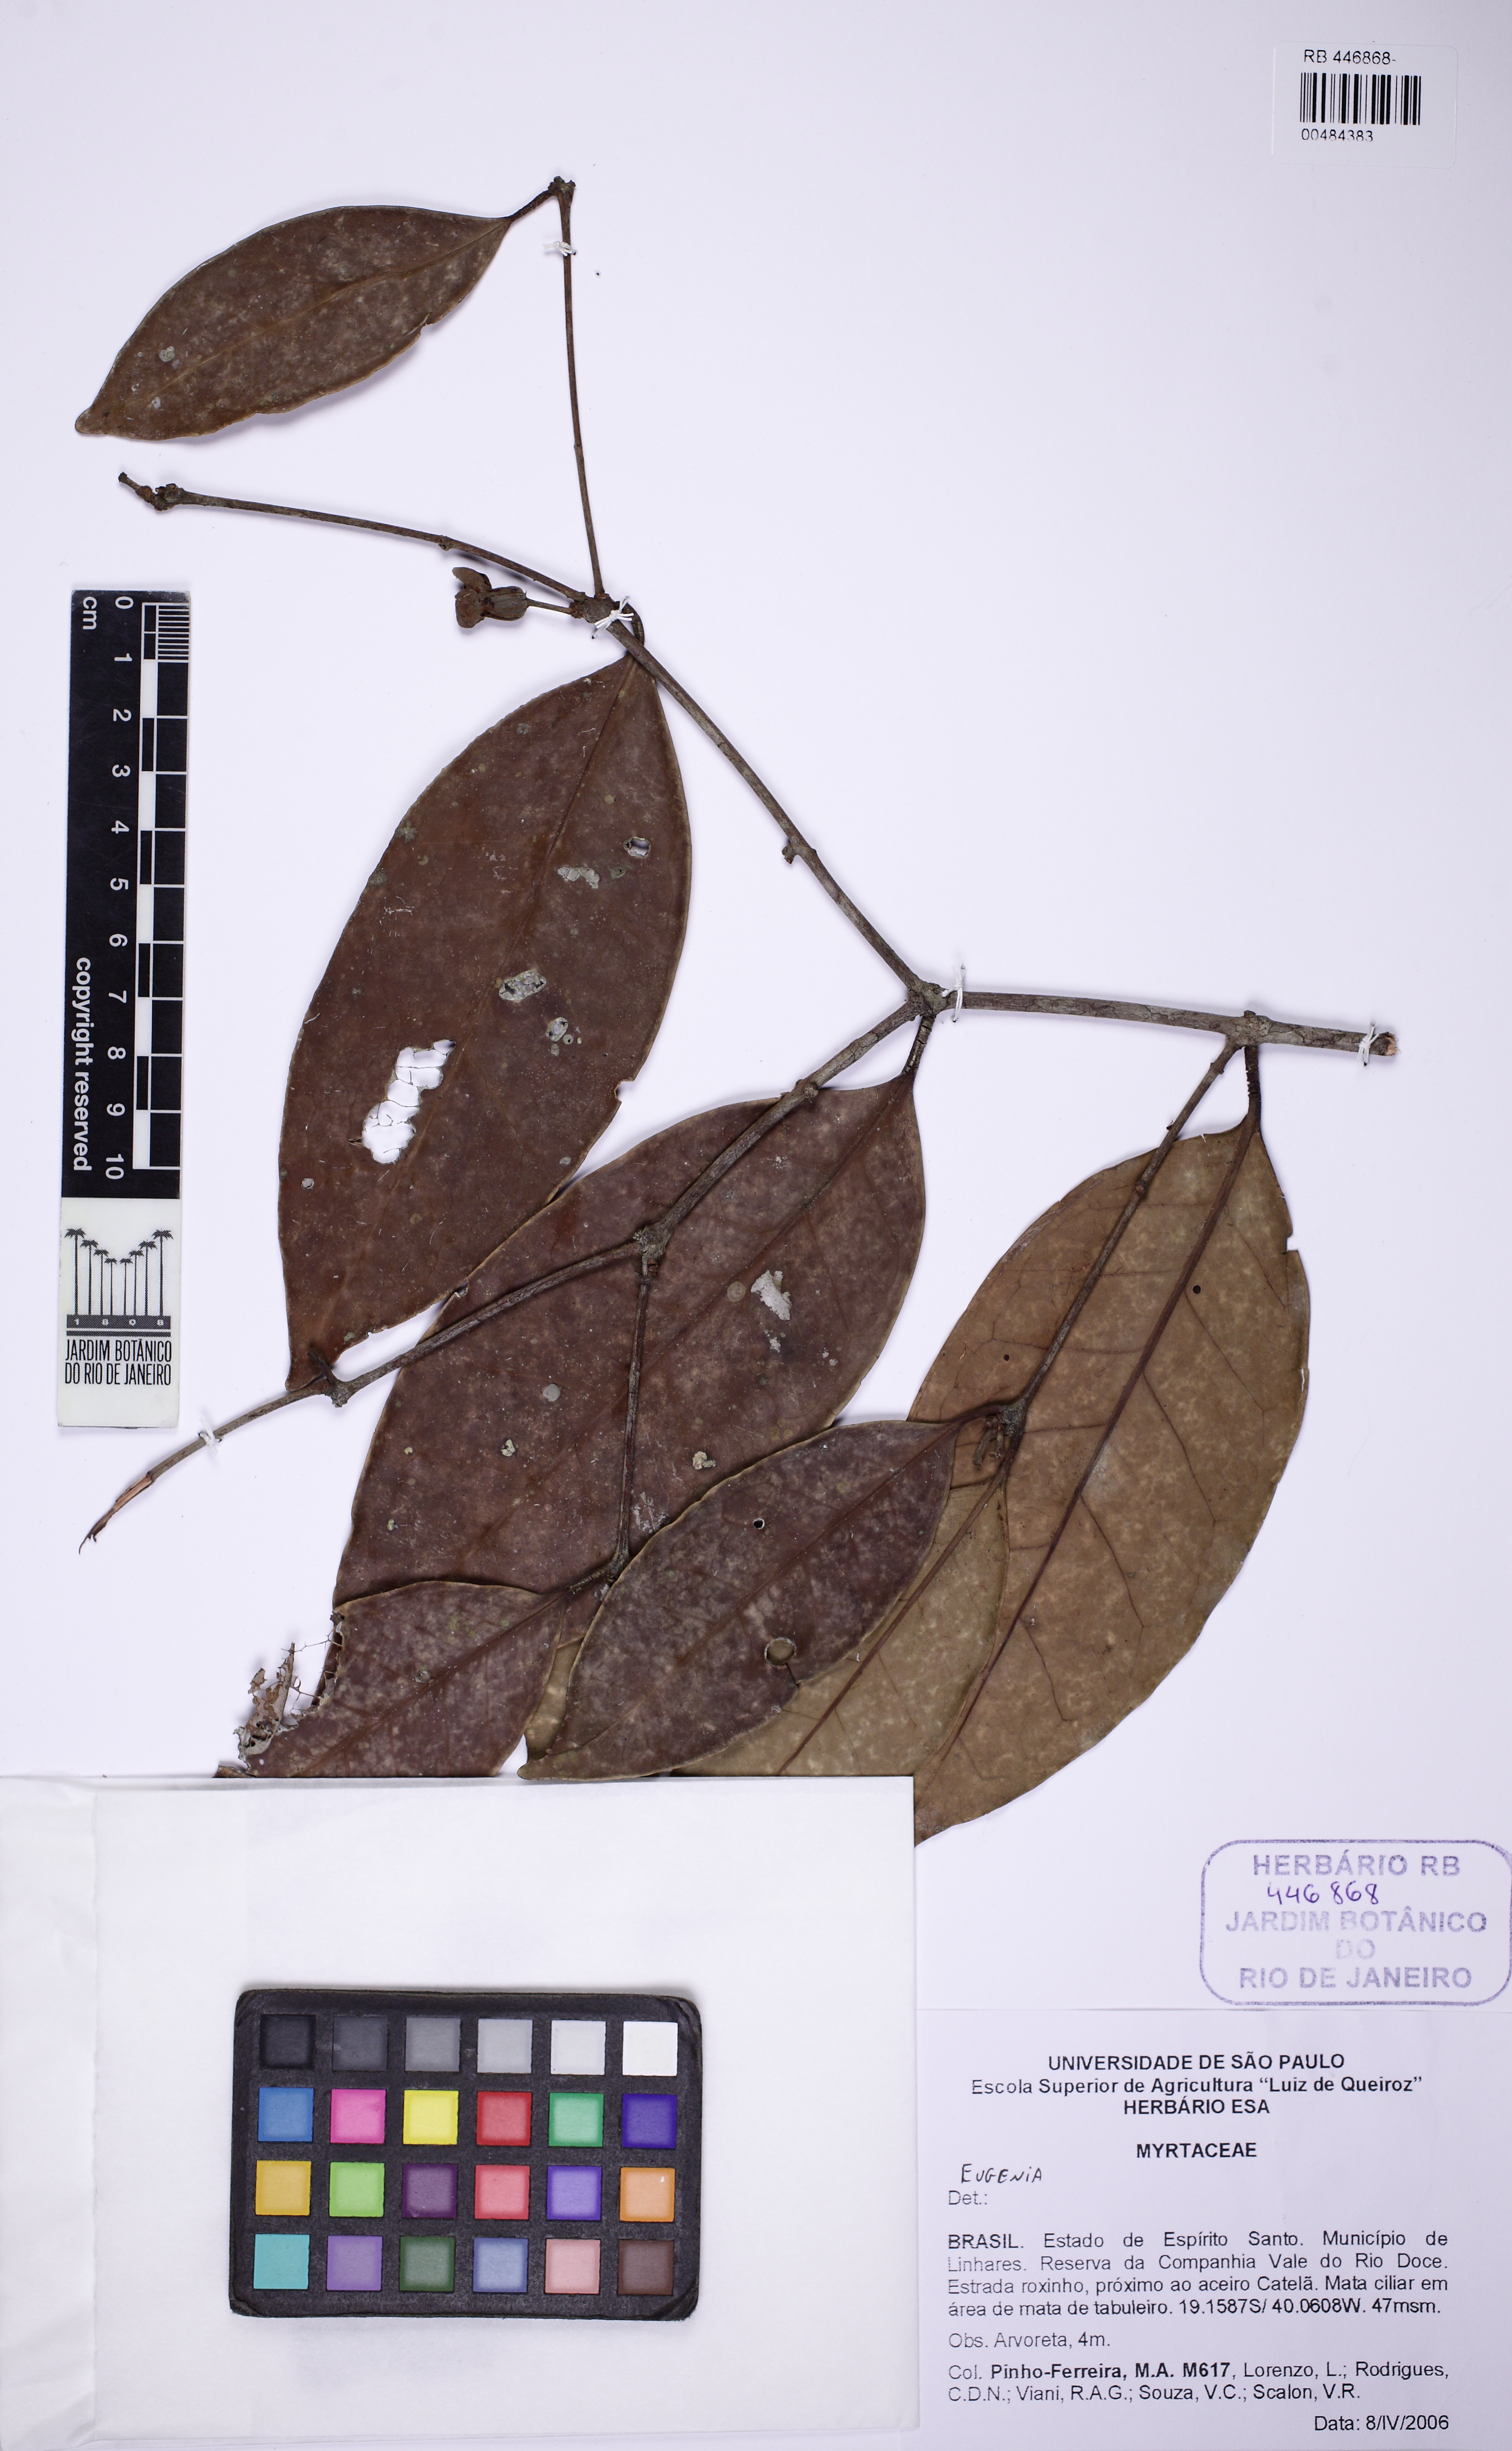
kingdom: Plantae
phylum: Tracheophyta
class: Magnoliopsida
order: Myrtales
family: Myrtaceae
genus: Eugenia
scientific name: Eugenia atlantica
